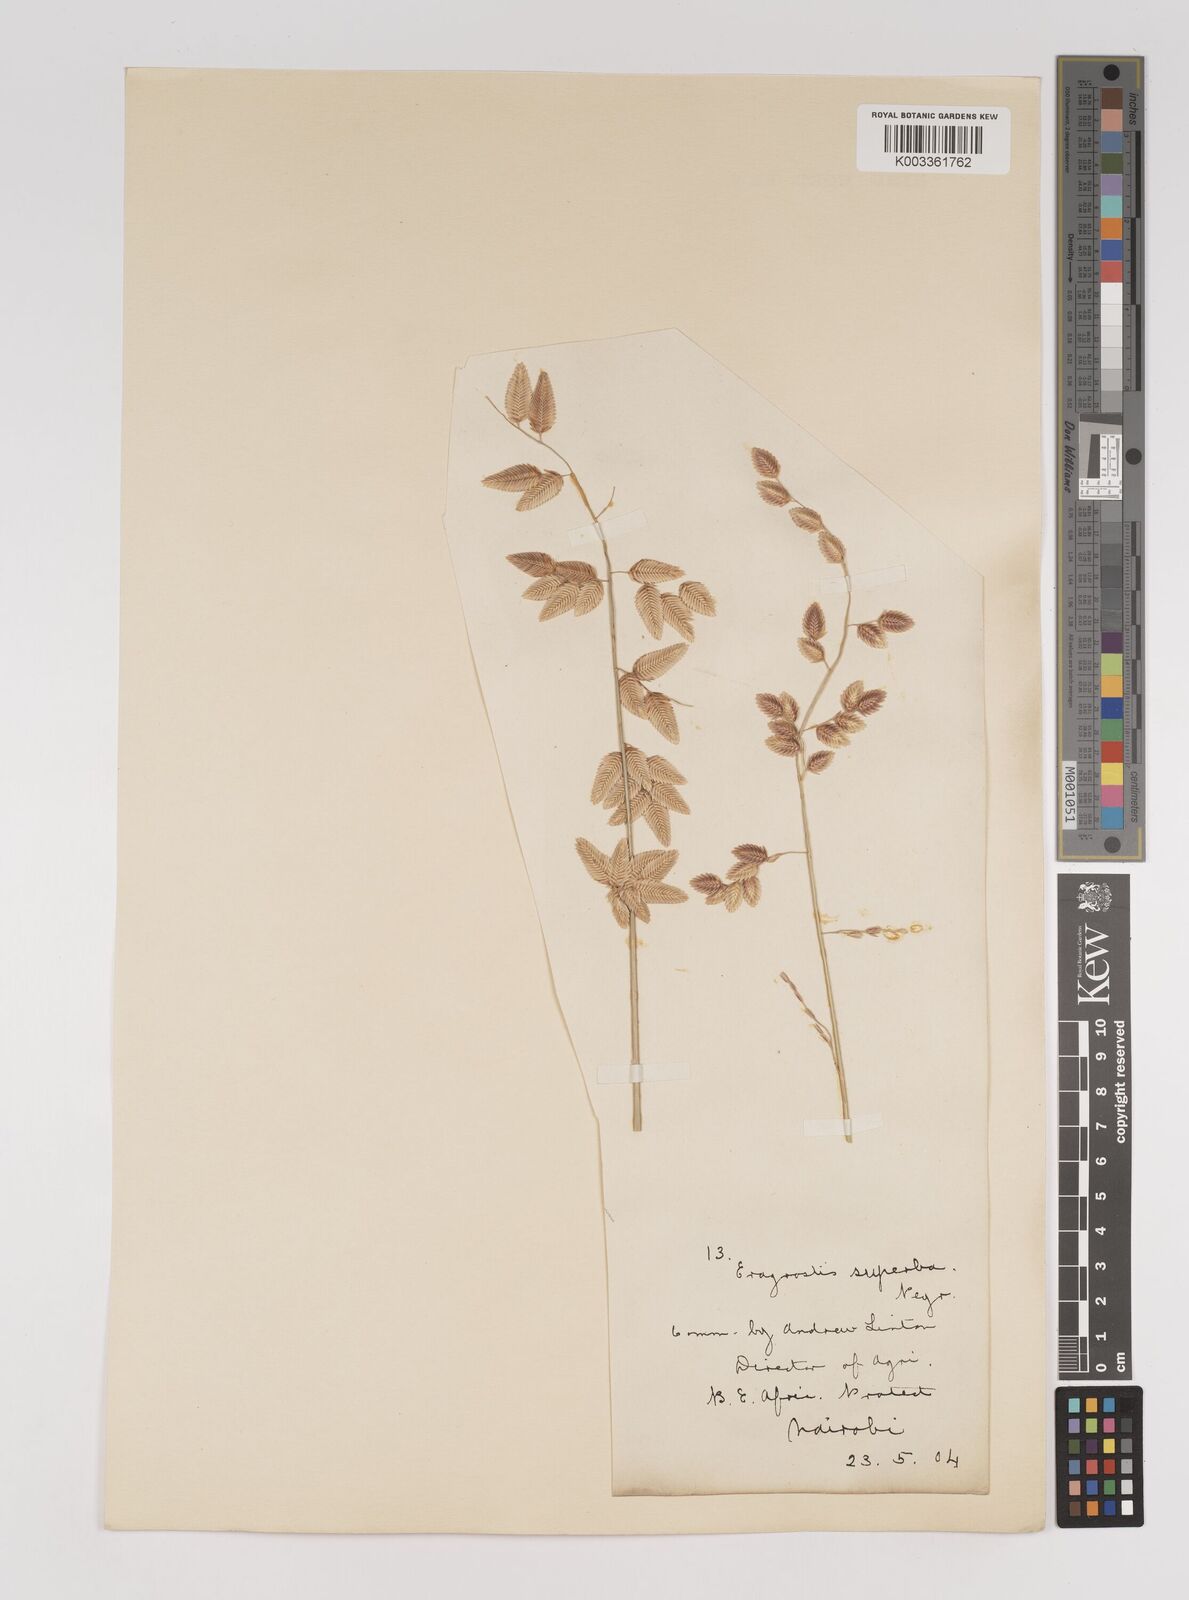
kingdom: Plantae
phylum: Tracheophyta
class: Liliopsida
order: Poales
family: Poaceae
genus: Eragrostis
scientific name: Eragrostis superba
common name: Wilman lovegrass
